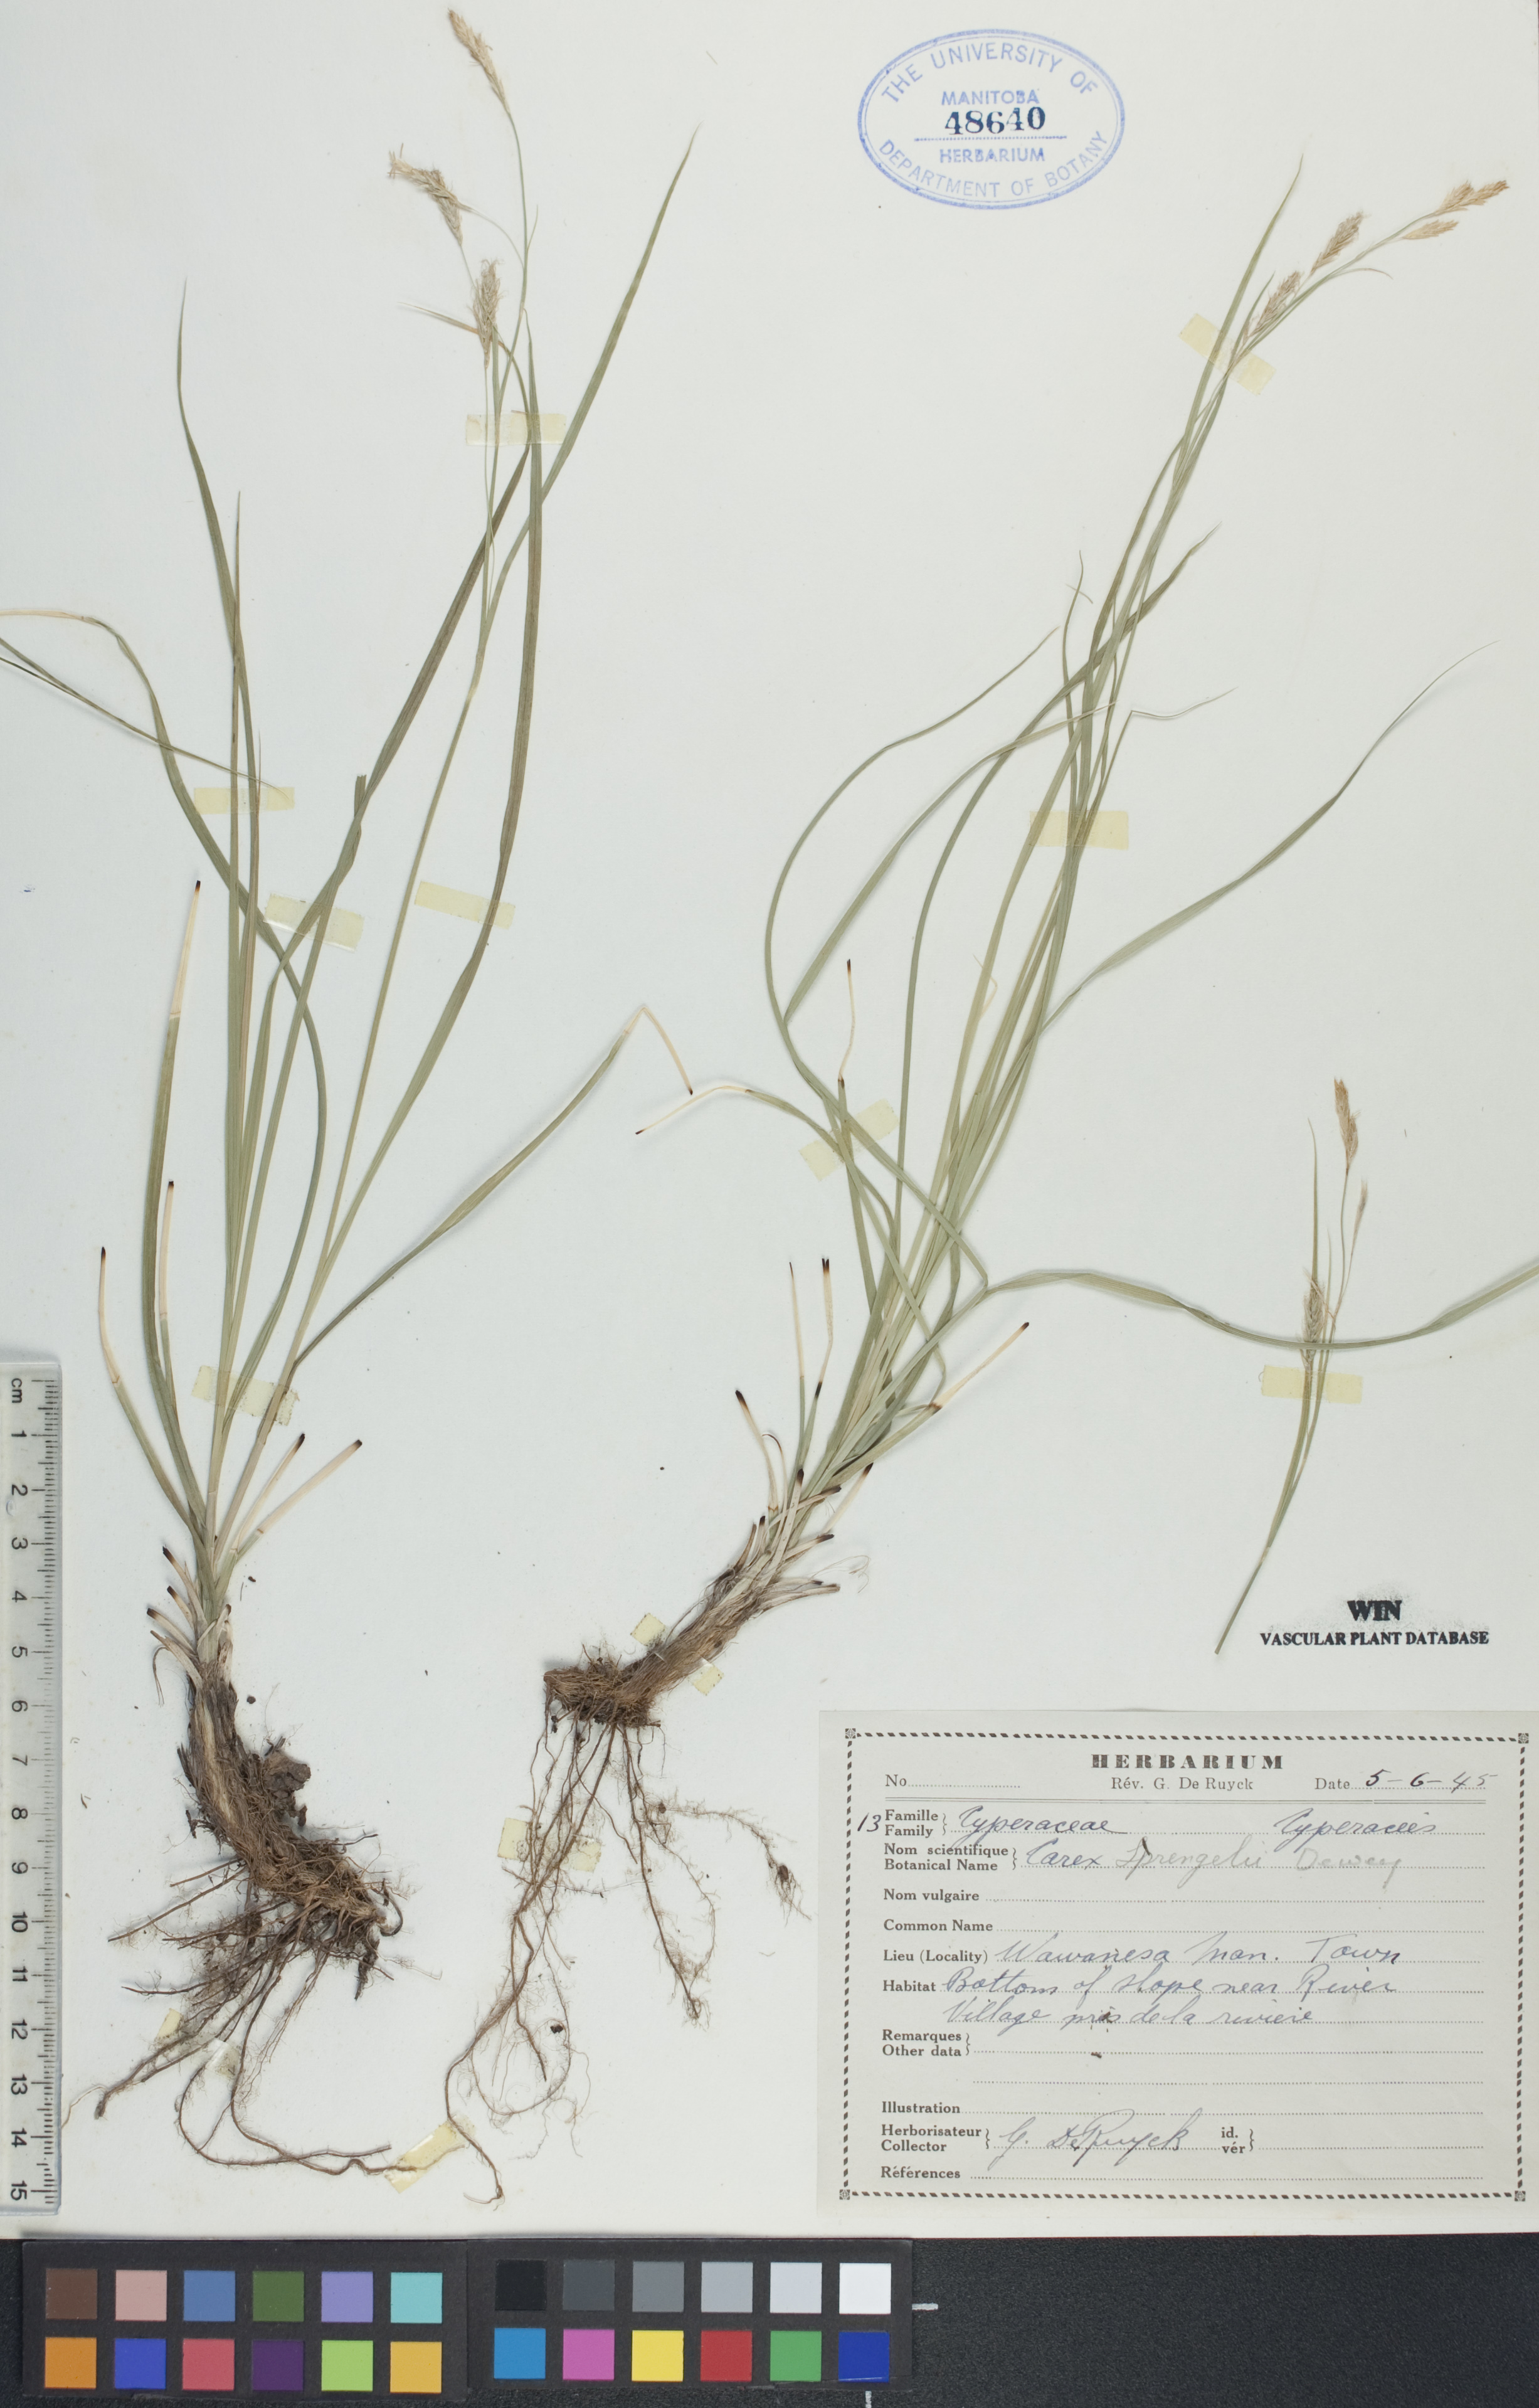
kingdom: Plantae
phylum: Tracheophyta
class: Liliopsida
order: Poales
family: Cyperaceae
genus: Carex
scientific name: Carex sprengelii
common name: Long-beaked sedge
